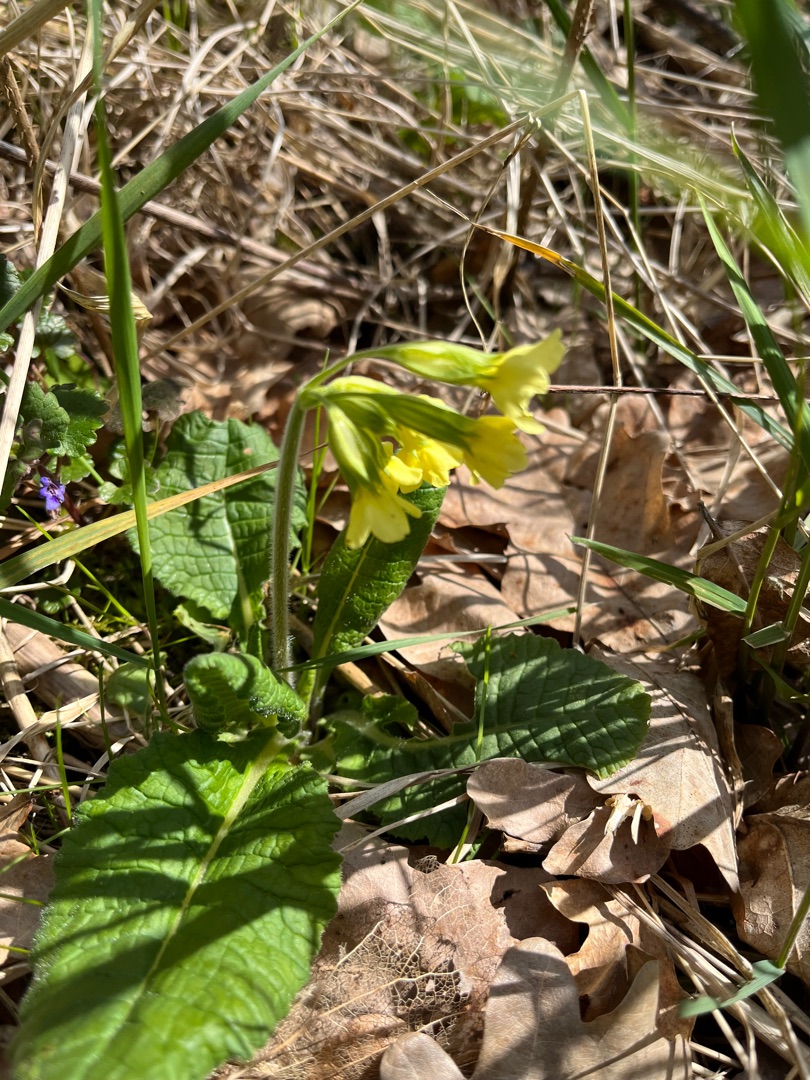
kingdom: Plantae
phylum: Tracheophyta
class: Magnoliopsida
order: Ericales
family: Primulaceae
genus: Primula
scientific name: Primula elatior
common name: Fladkravet kodriver
